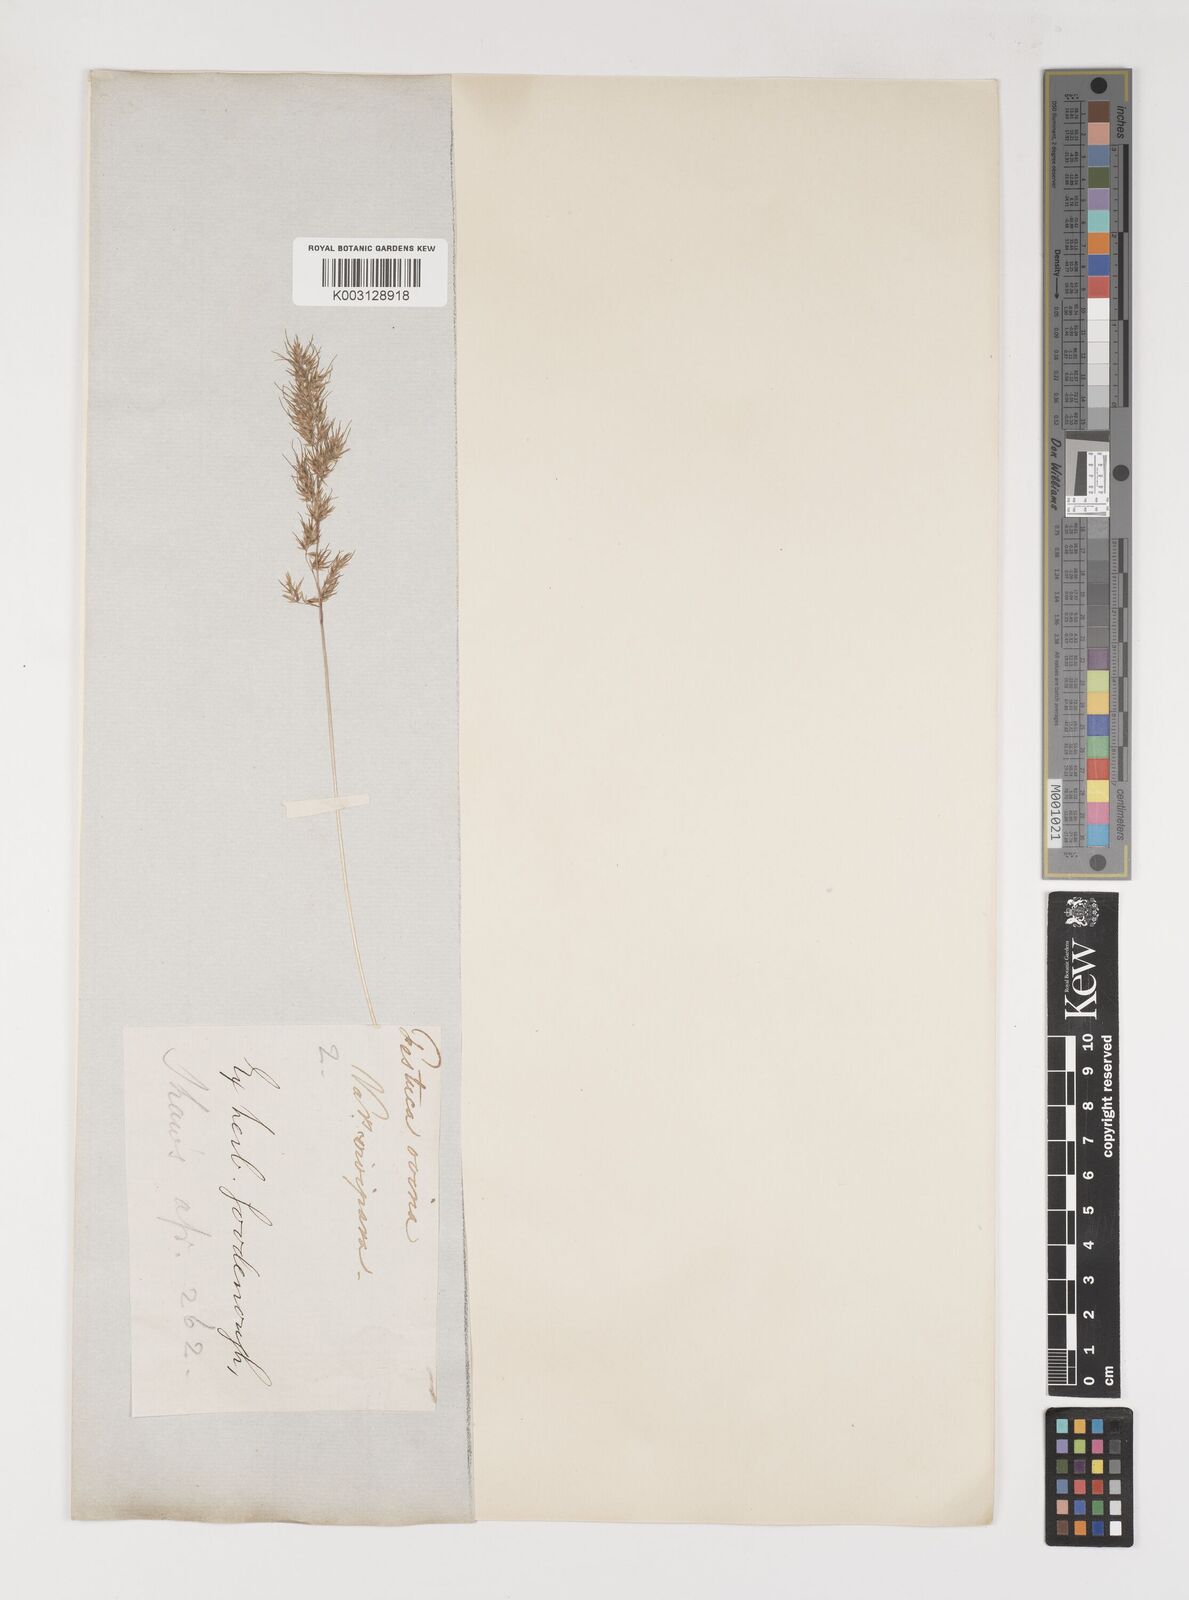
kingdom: Plantae
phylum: Tracheophyta
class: Liliopsida
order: Poales
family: Poaceae
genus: Poa
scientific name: Poa bulbosa
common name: Bulbous bluegrass
